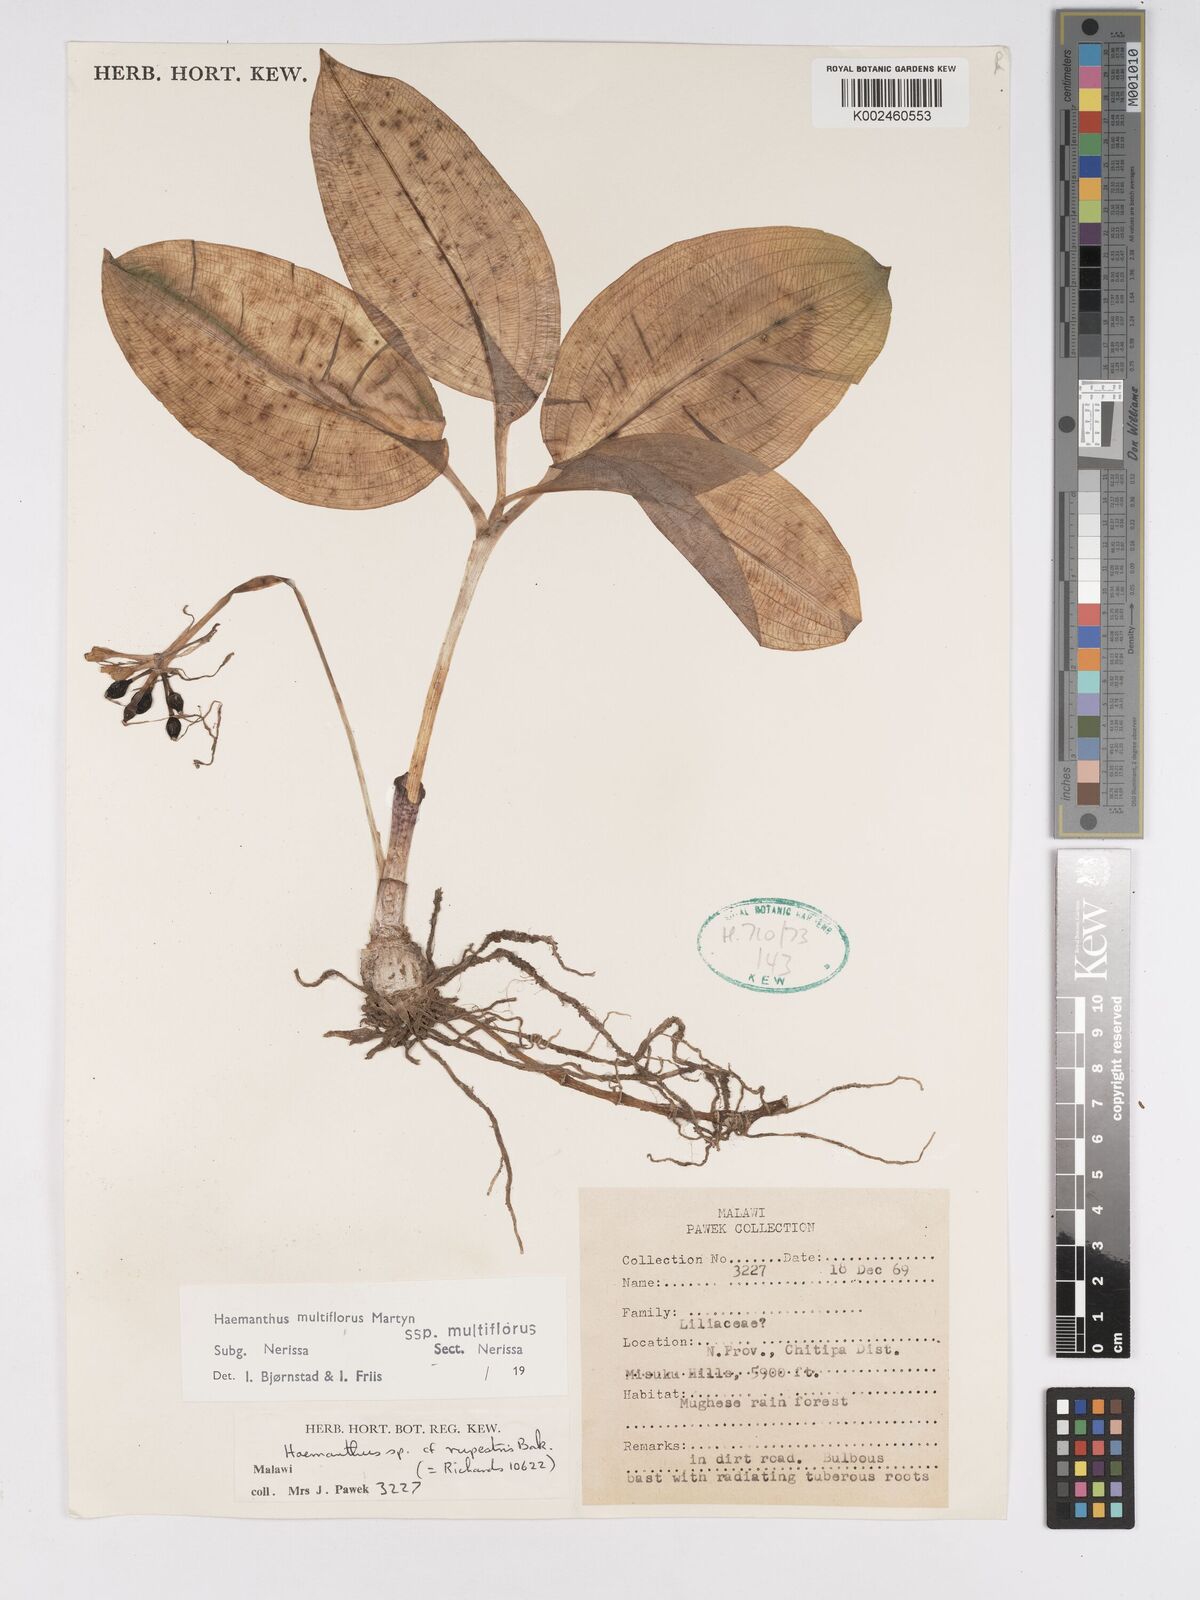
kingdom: Plantae
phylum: Tracheophyta
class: Liliopsida
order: Asparagales
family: Amaryllidaceae
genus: Scadoxus
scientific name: Scadoxus multiflorus
